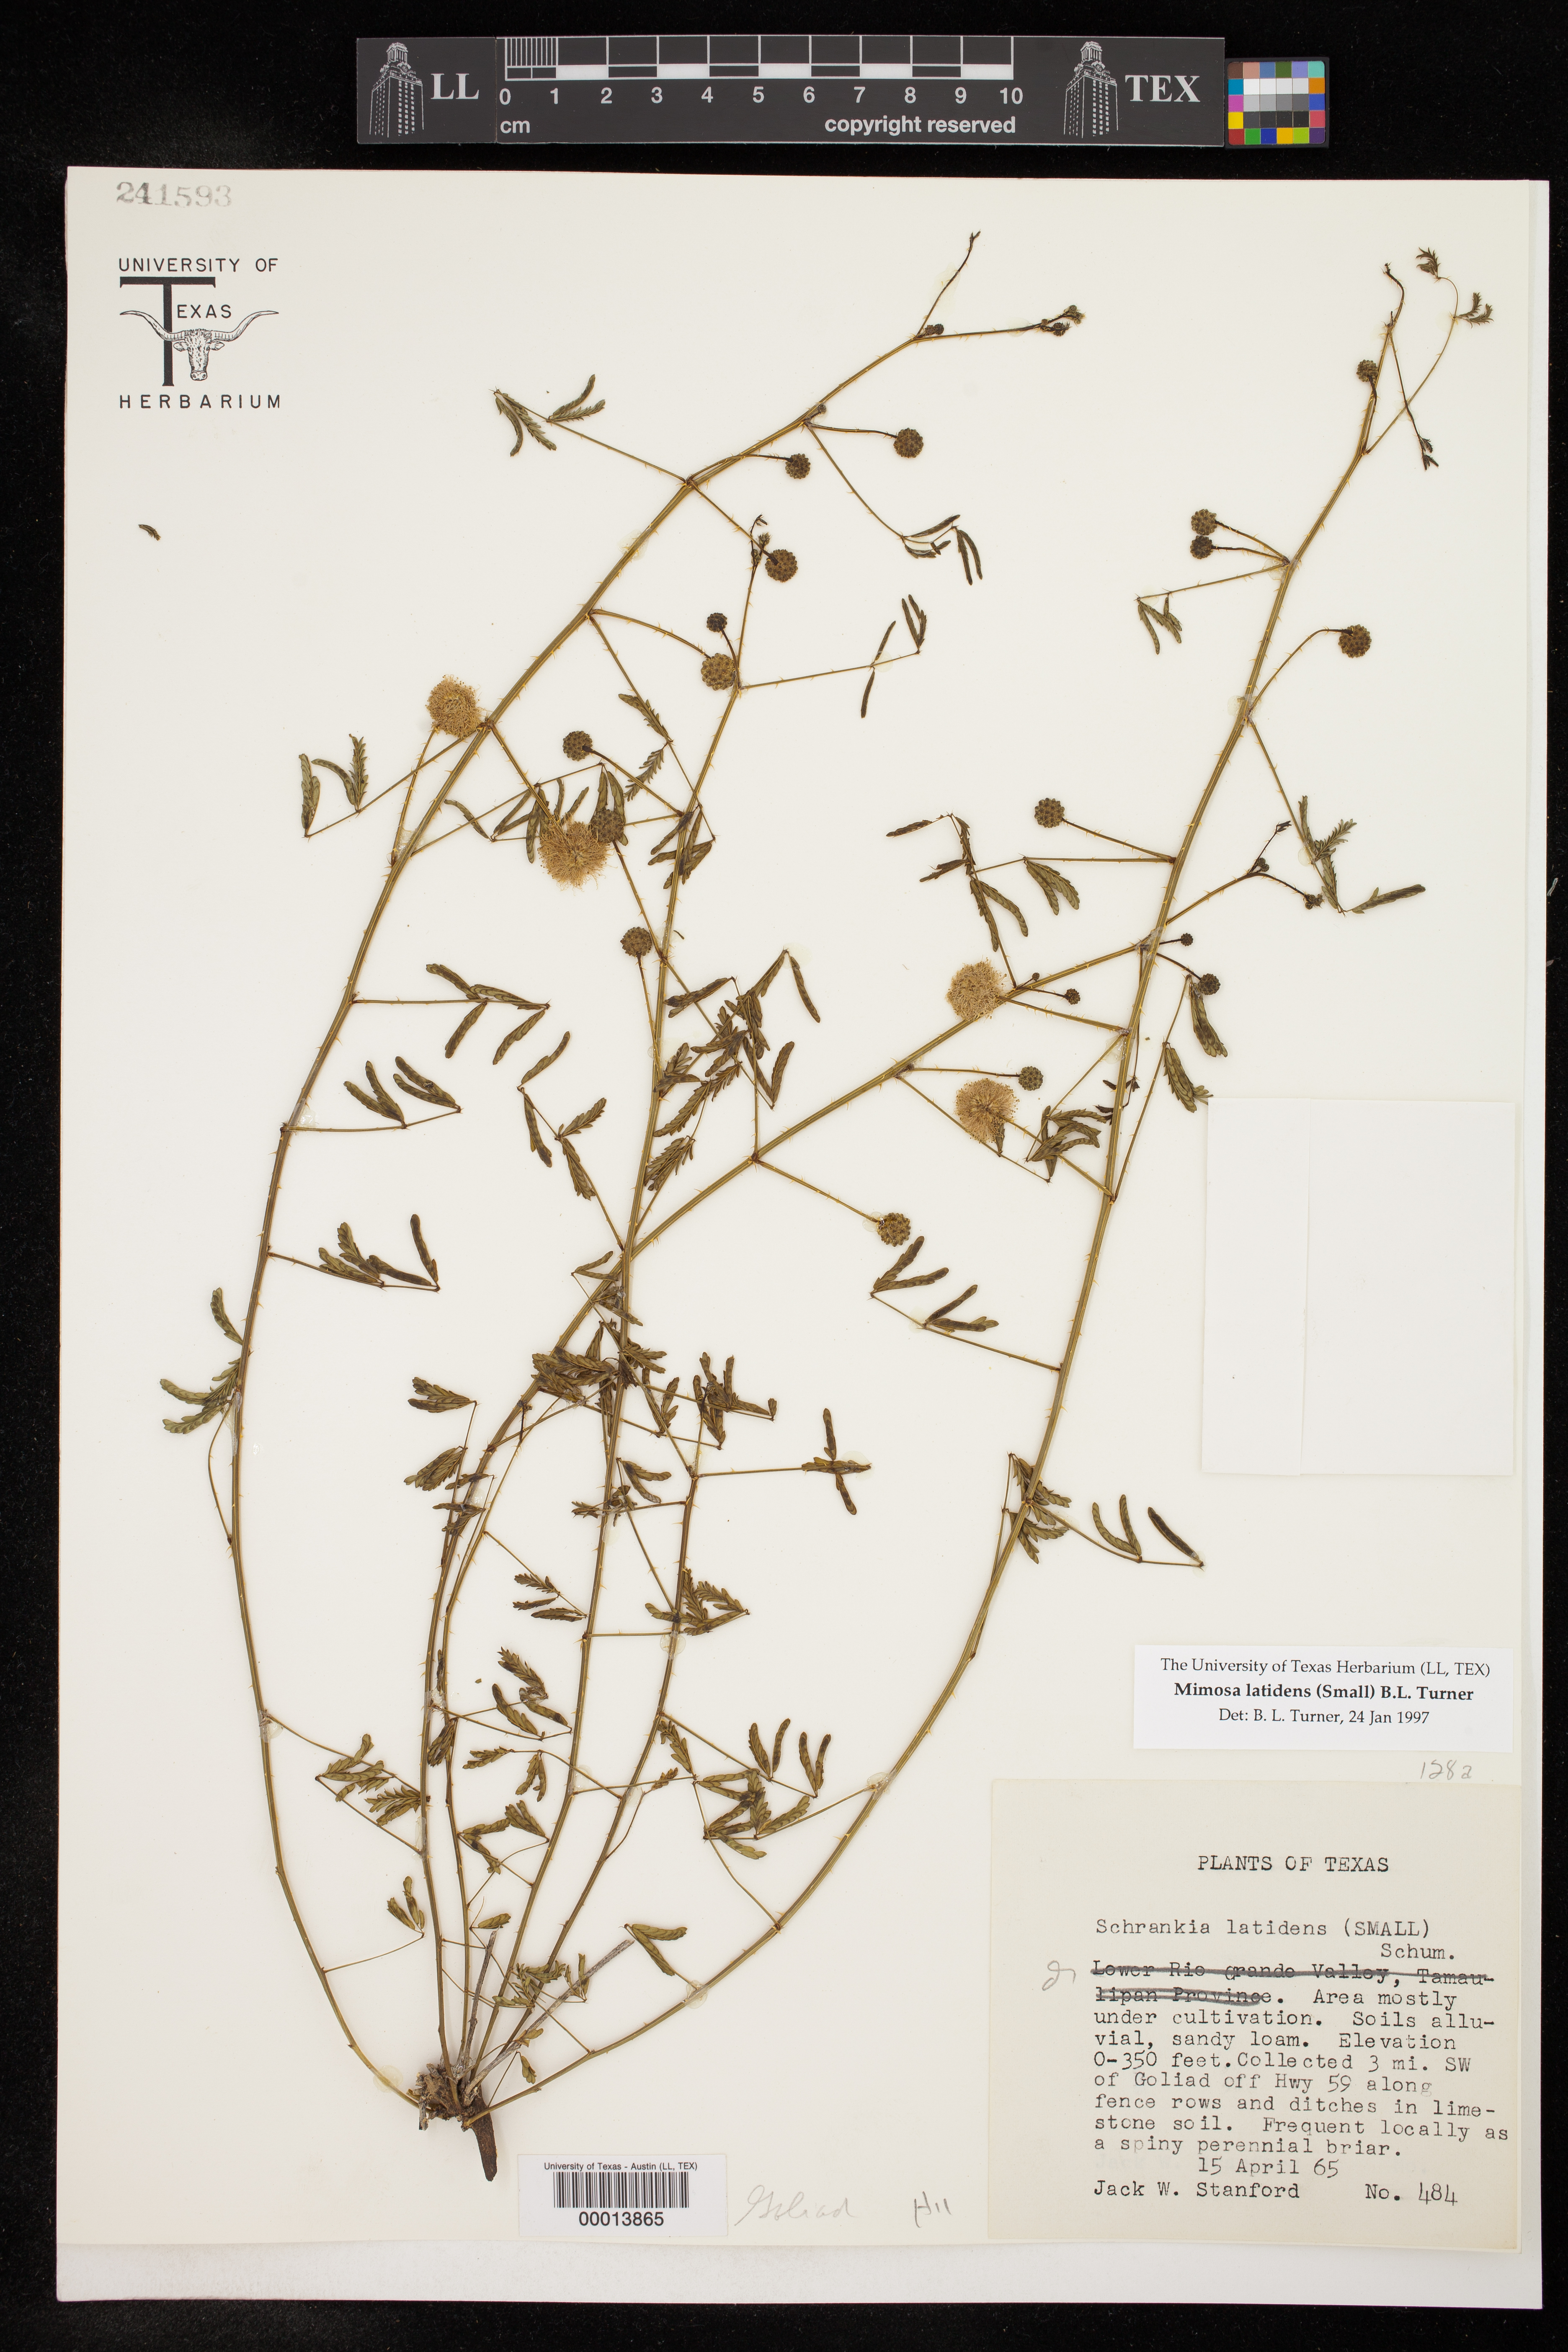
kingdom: Plantae
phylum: Tracheophyta
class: Magnoliopsida
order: Fabales
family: Fabaceae
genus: Mimosa
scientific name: Mimosa latidens
